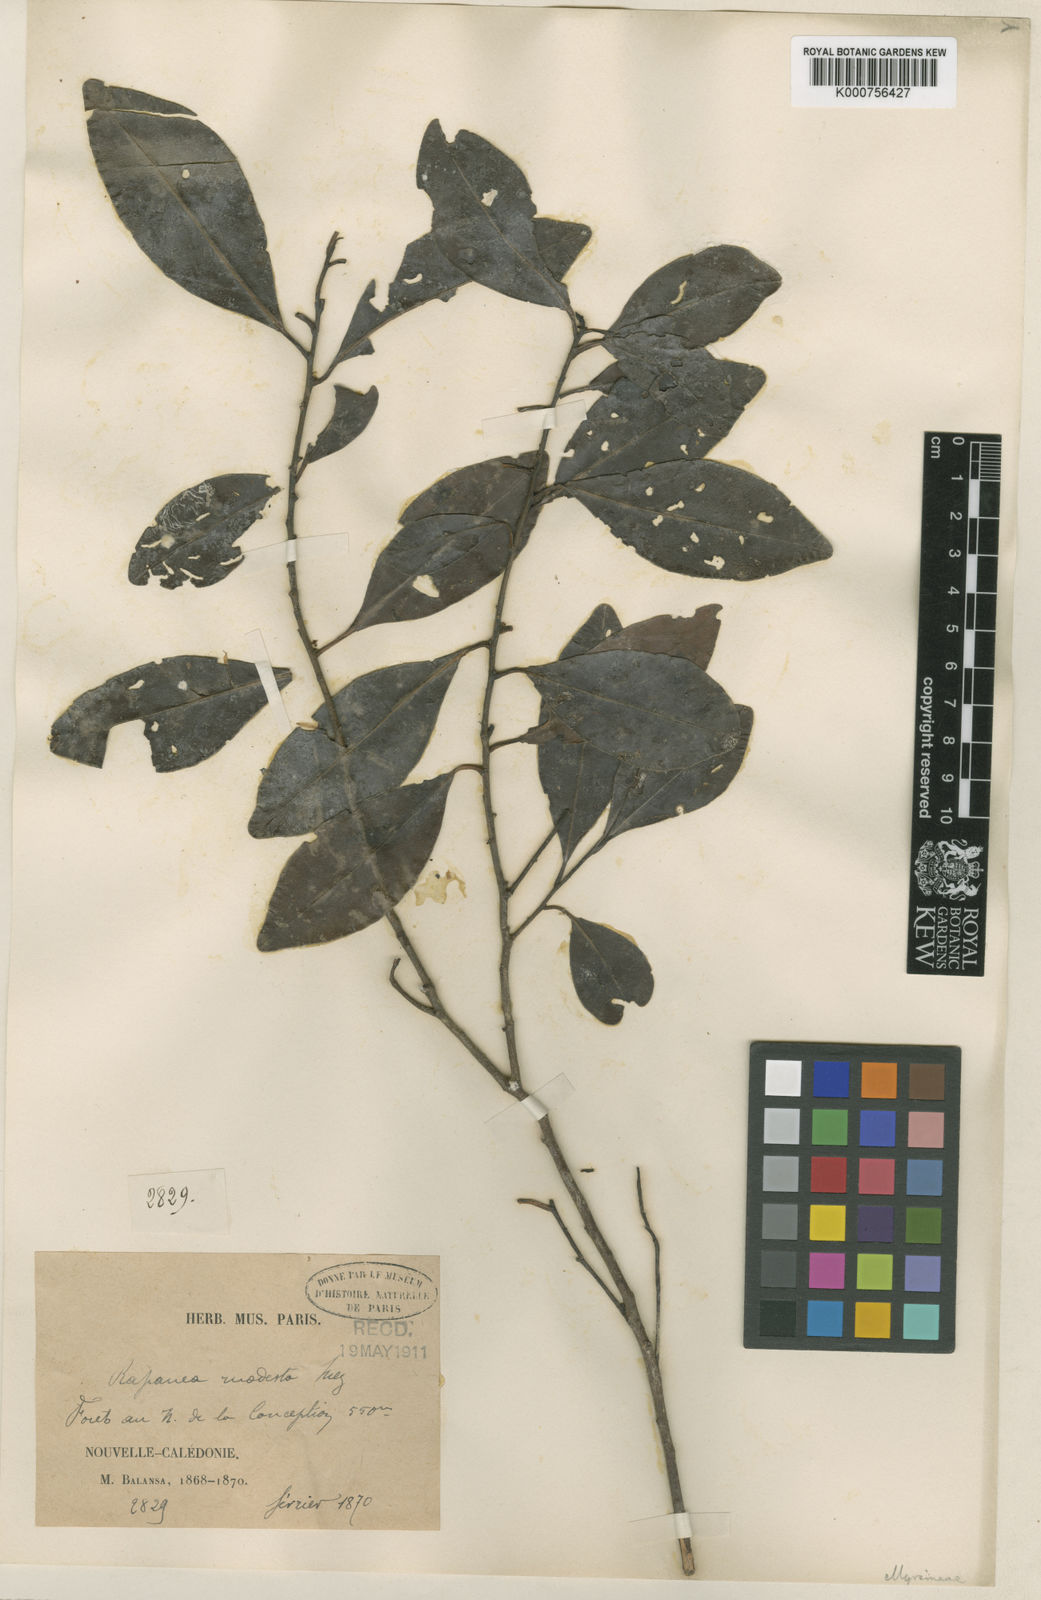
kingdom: Plantae
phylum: Tracheophyta
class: Magnoliopsida
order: Ericales
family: Primulaceae
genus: Myrsine
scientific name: Myrsine modesta
